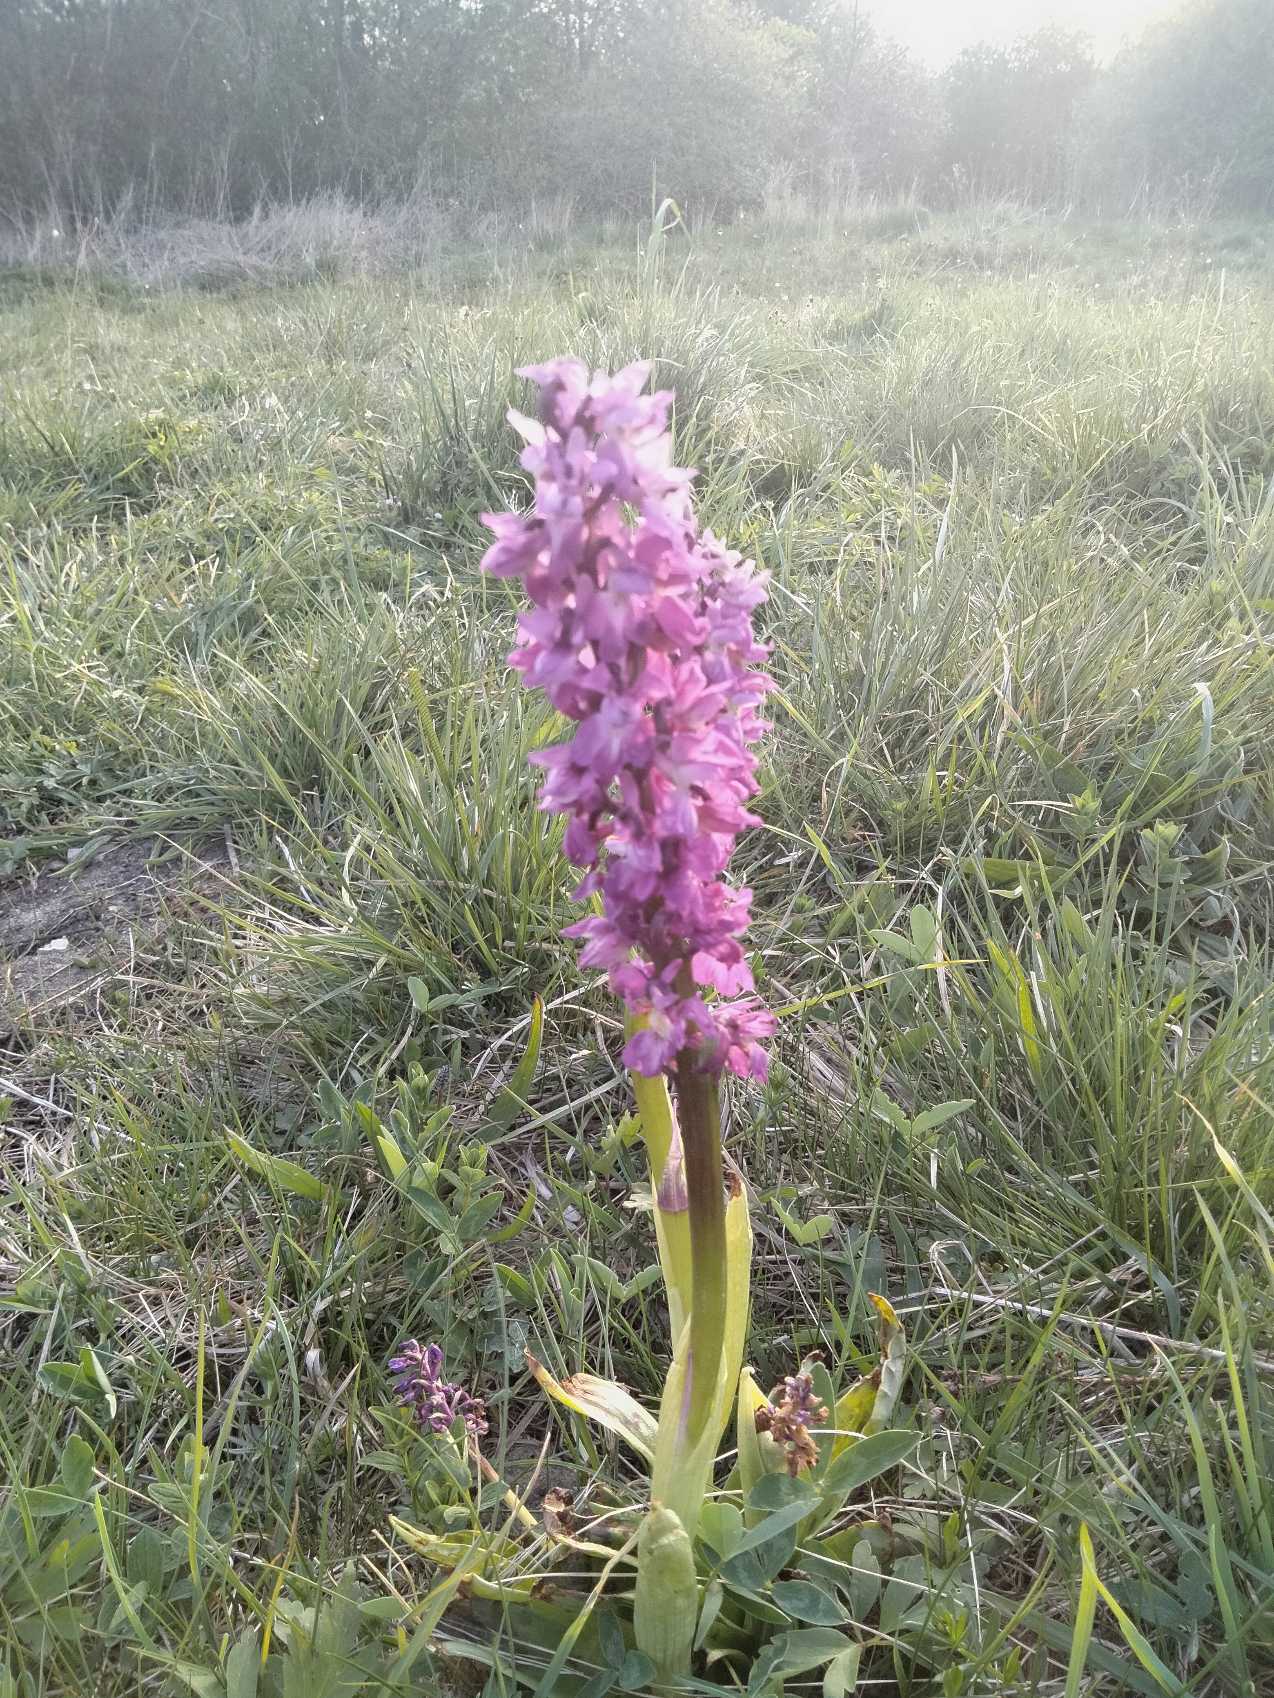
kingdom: Plantae
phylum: Tracheophyta
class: Liliopsida
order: Asparagales
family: Orchidaceae
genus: Orchis
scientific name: Orchis mascula
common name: Tyndakset gøgeurt
